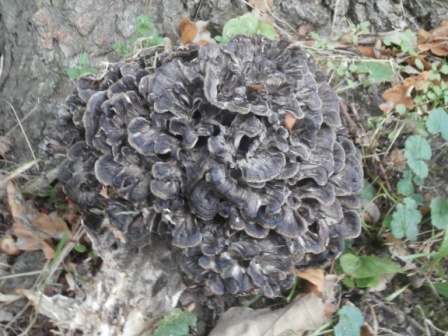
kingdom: Fungi
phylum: Basidiomycota
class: Agaricomycetes
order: Polyporales
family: Grifolaceae
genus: Grifola
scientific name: Grifola frondosa
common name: tueporesvamp
